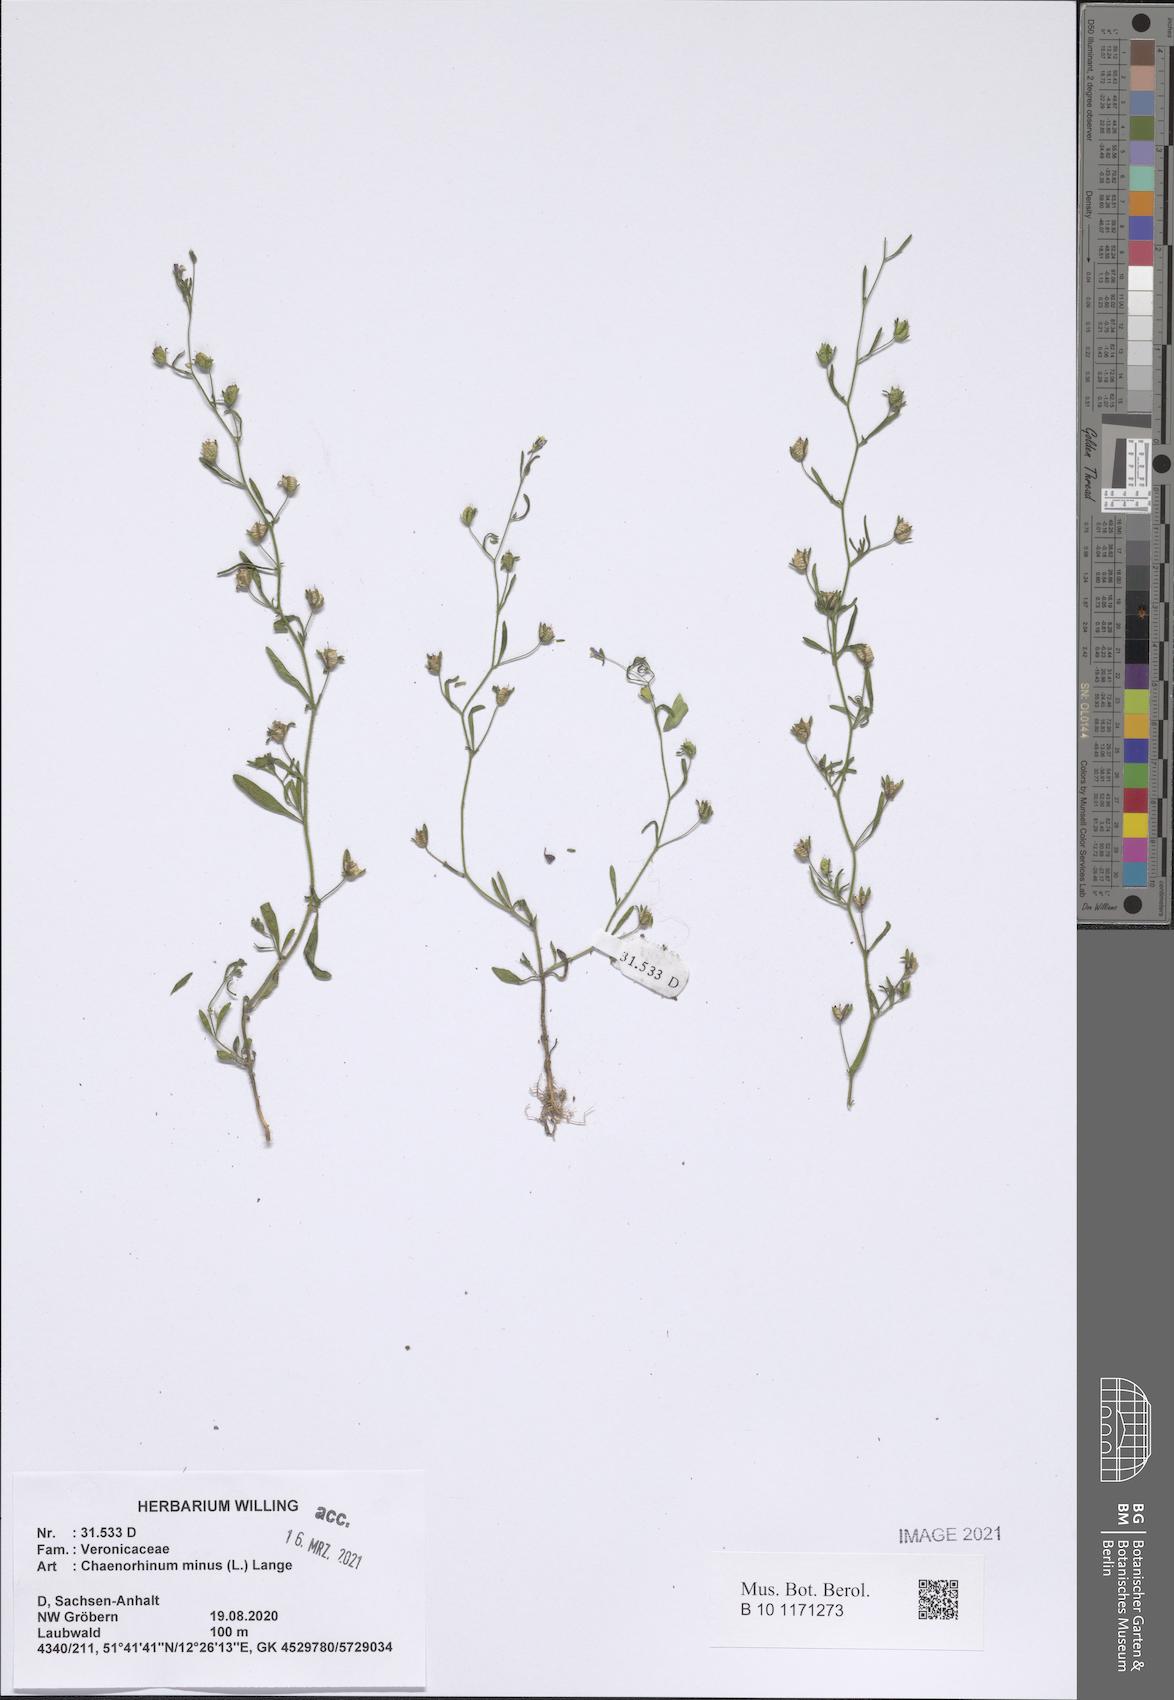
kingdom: Plantae
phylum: Tracheophyta
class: Magnoliopsida
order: Lamiales
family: Plantaginaceae
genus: Chaenorhinum
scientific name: Chaenorhinum minus
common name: Dwarf snapdragon
